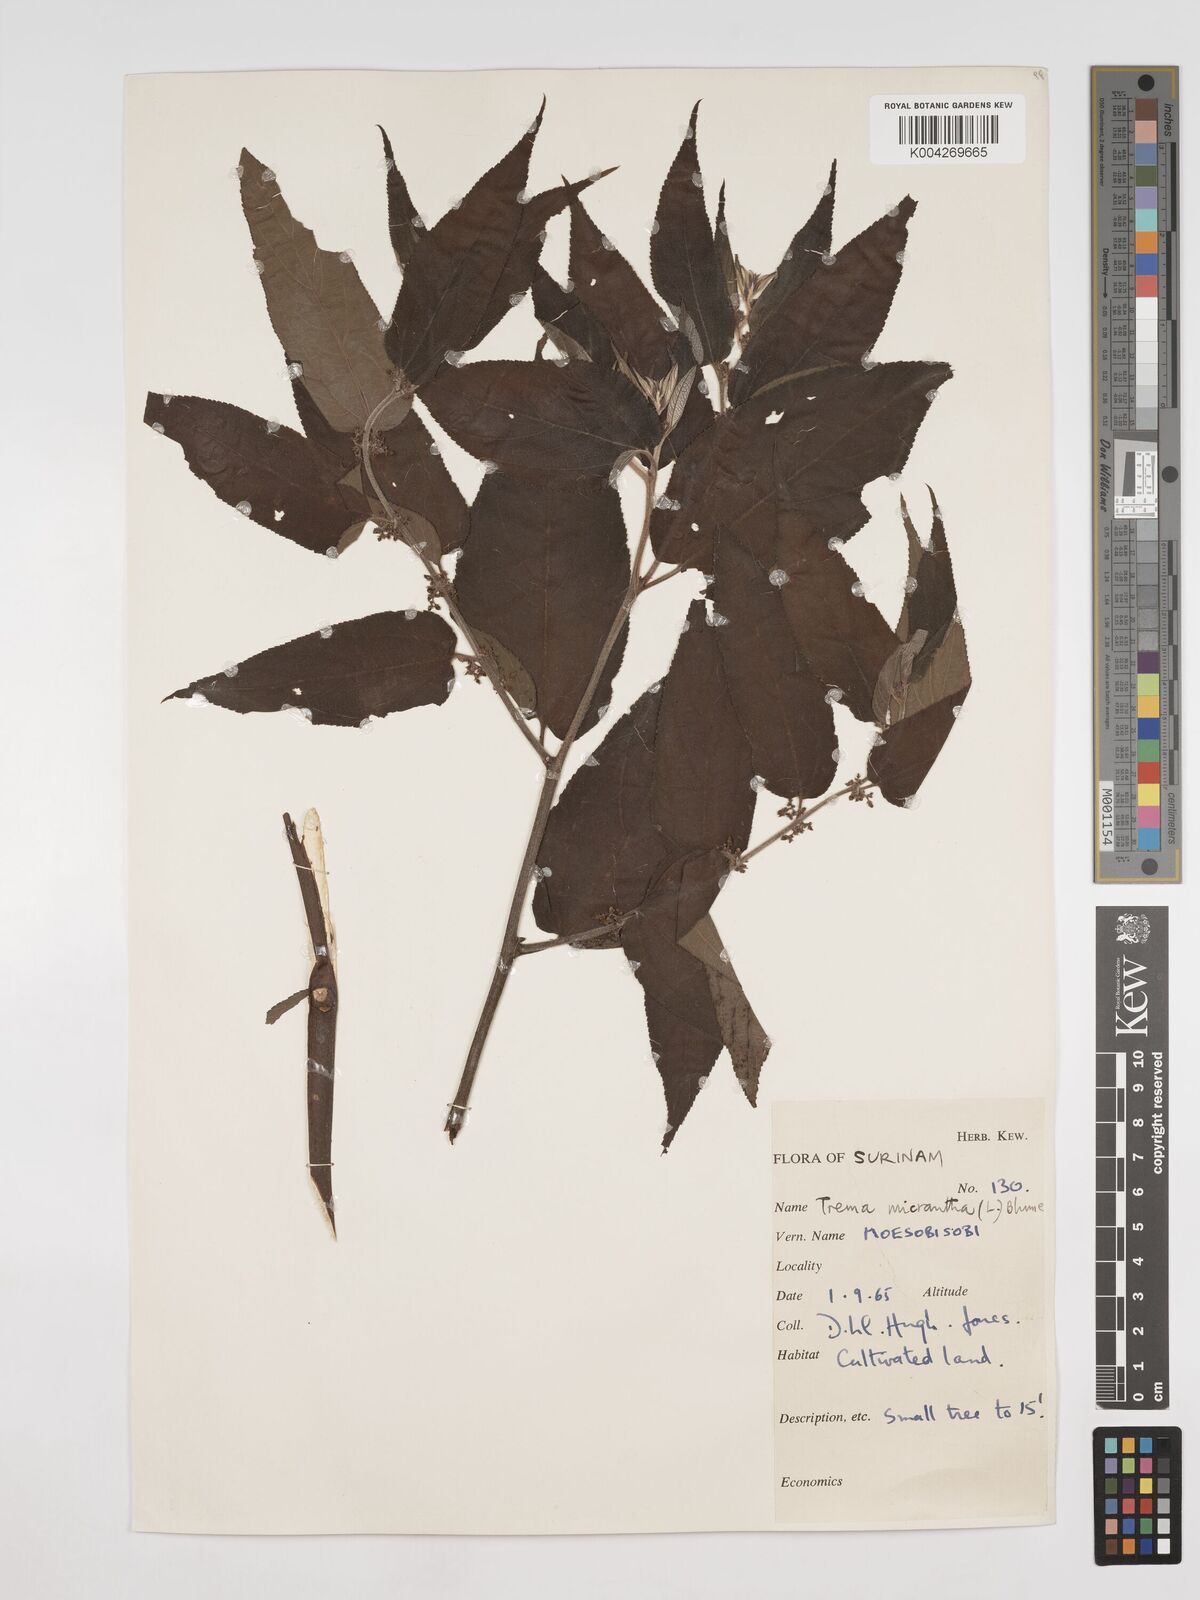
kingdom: Plantae
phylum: Tracheophyta
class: Magnoliopsida
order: Rosales
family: Cannabaceae
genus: Trema
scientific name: Trema micranthum
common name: Jamaican nettletree
